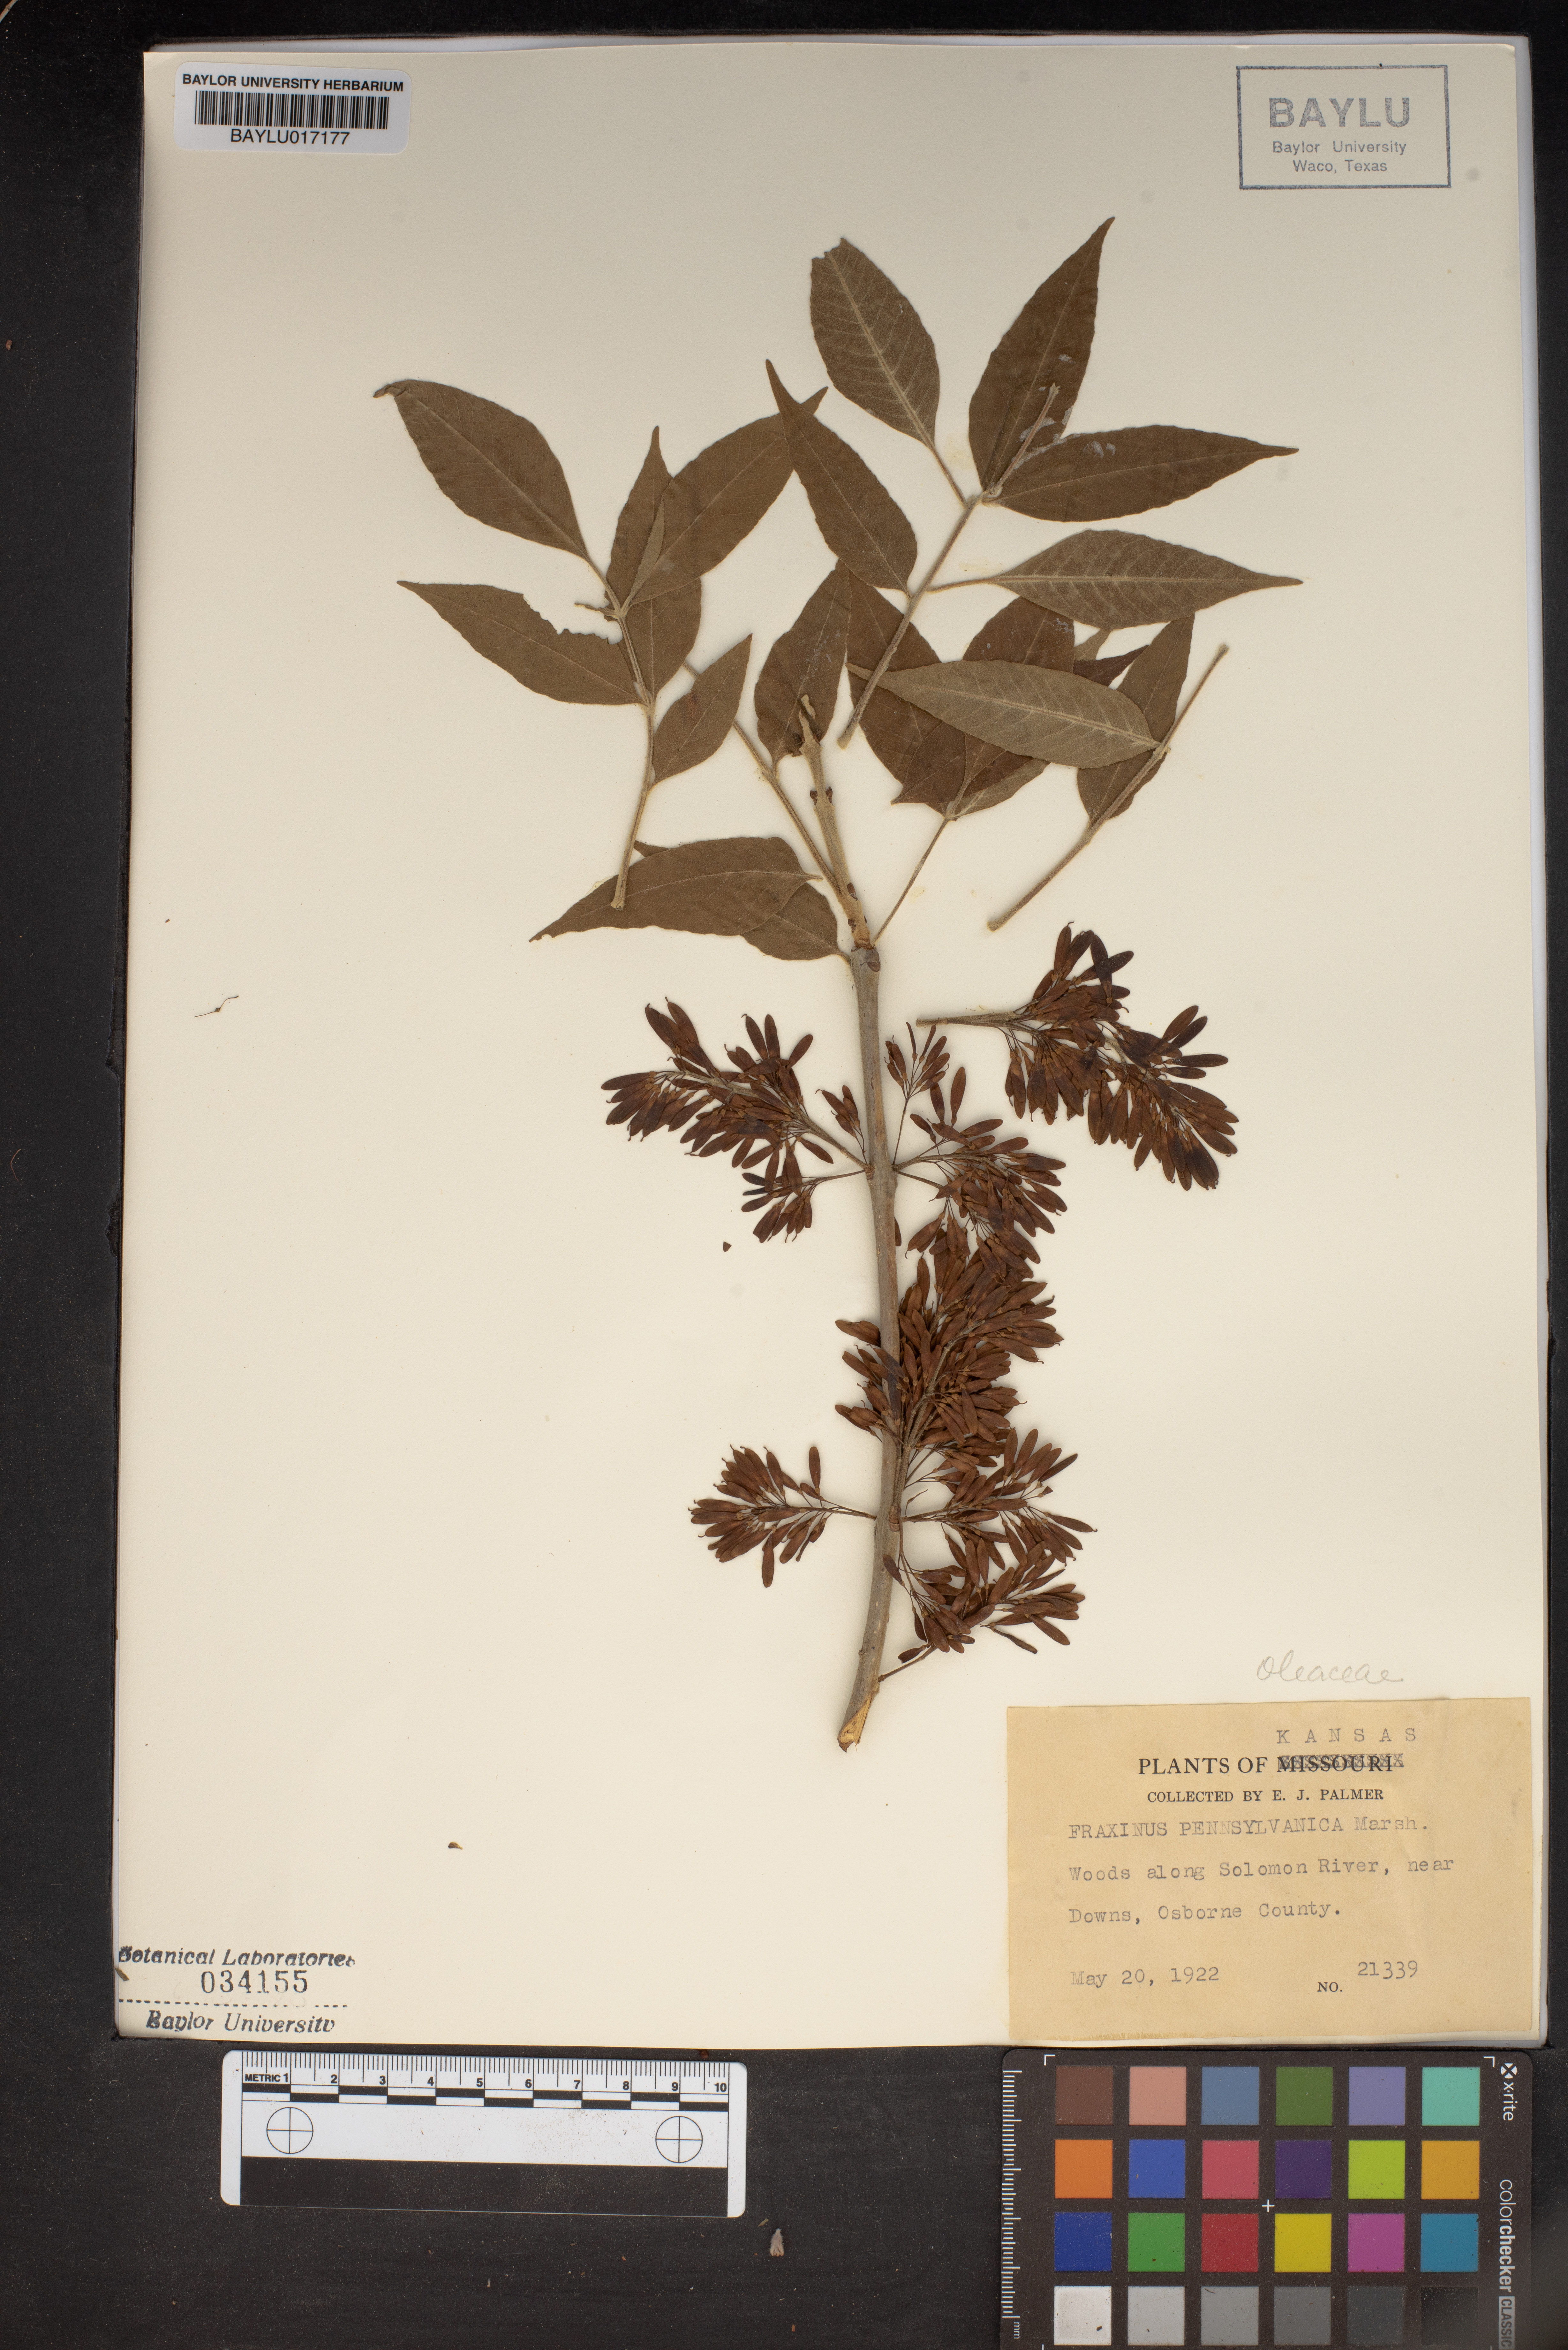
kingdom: Plantae
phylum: Tracheophyta
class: Magnoliopsida
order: Lamiales
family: Oleaceae
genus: Fraxinus
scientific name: Fraxinus pennsylvanica
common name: Green ash
